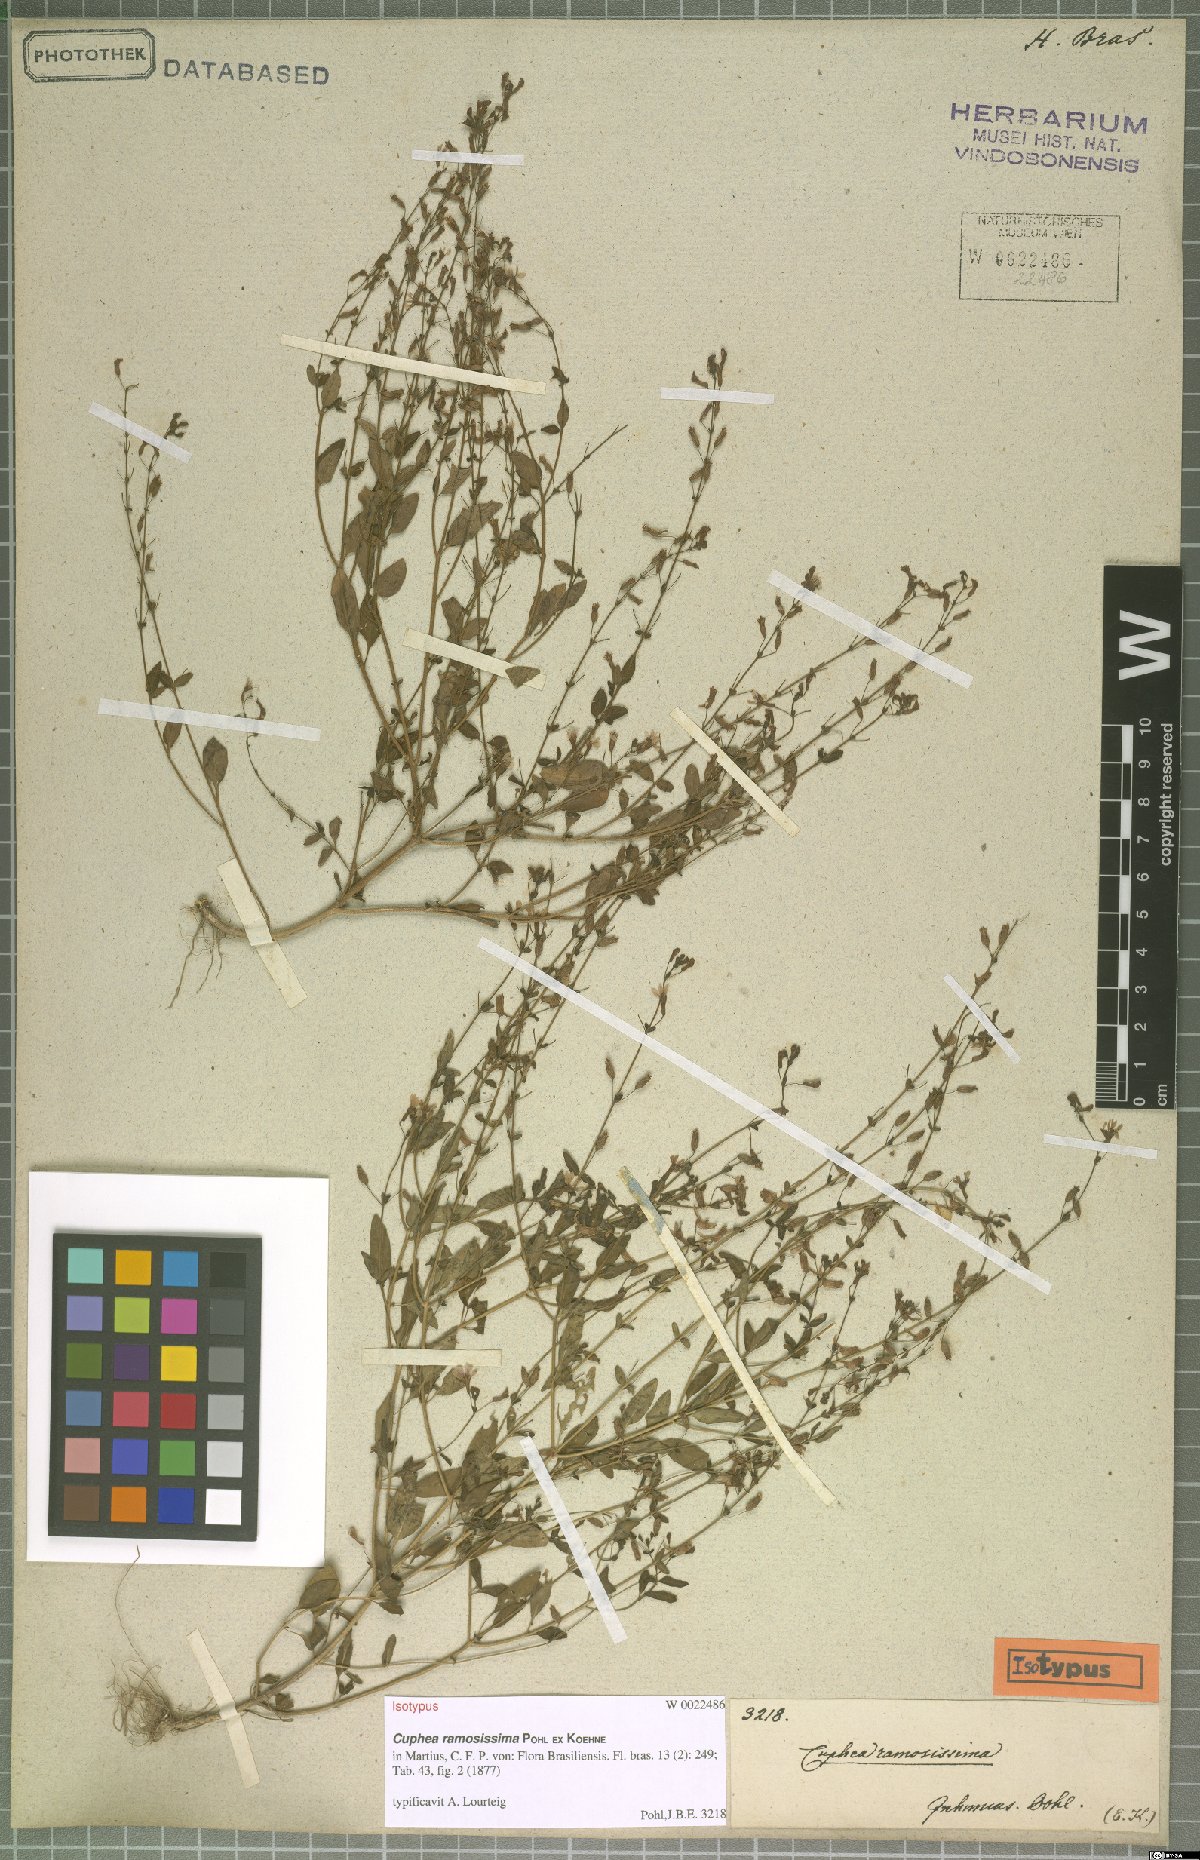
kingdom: Plantae
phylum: Tracheophyta
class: Magnoliopsida
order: Myrtales
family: Lythraceae
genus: Cuphea
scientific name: Cuphea ramosissima
